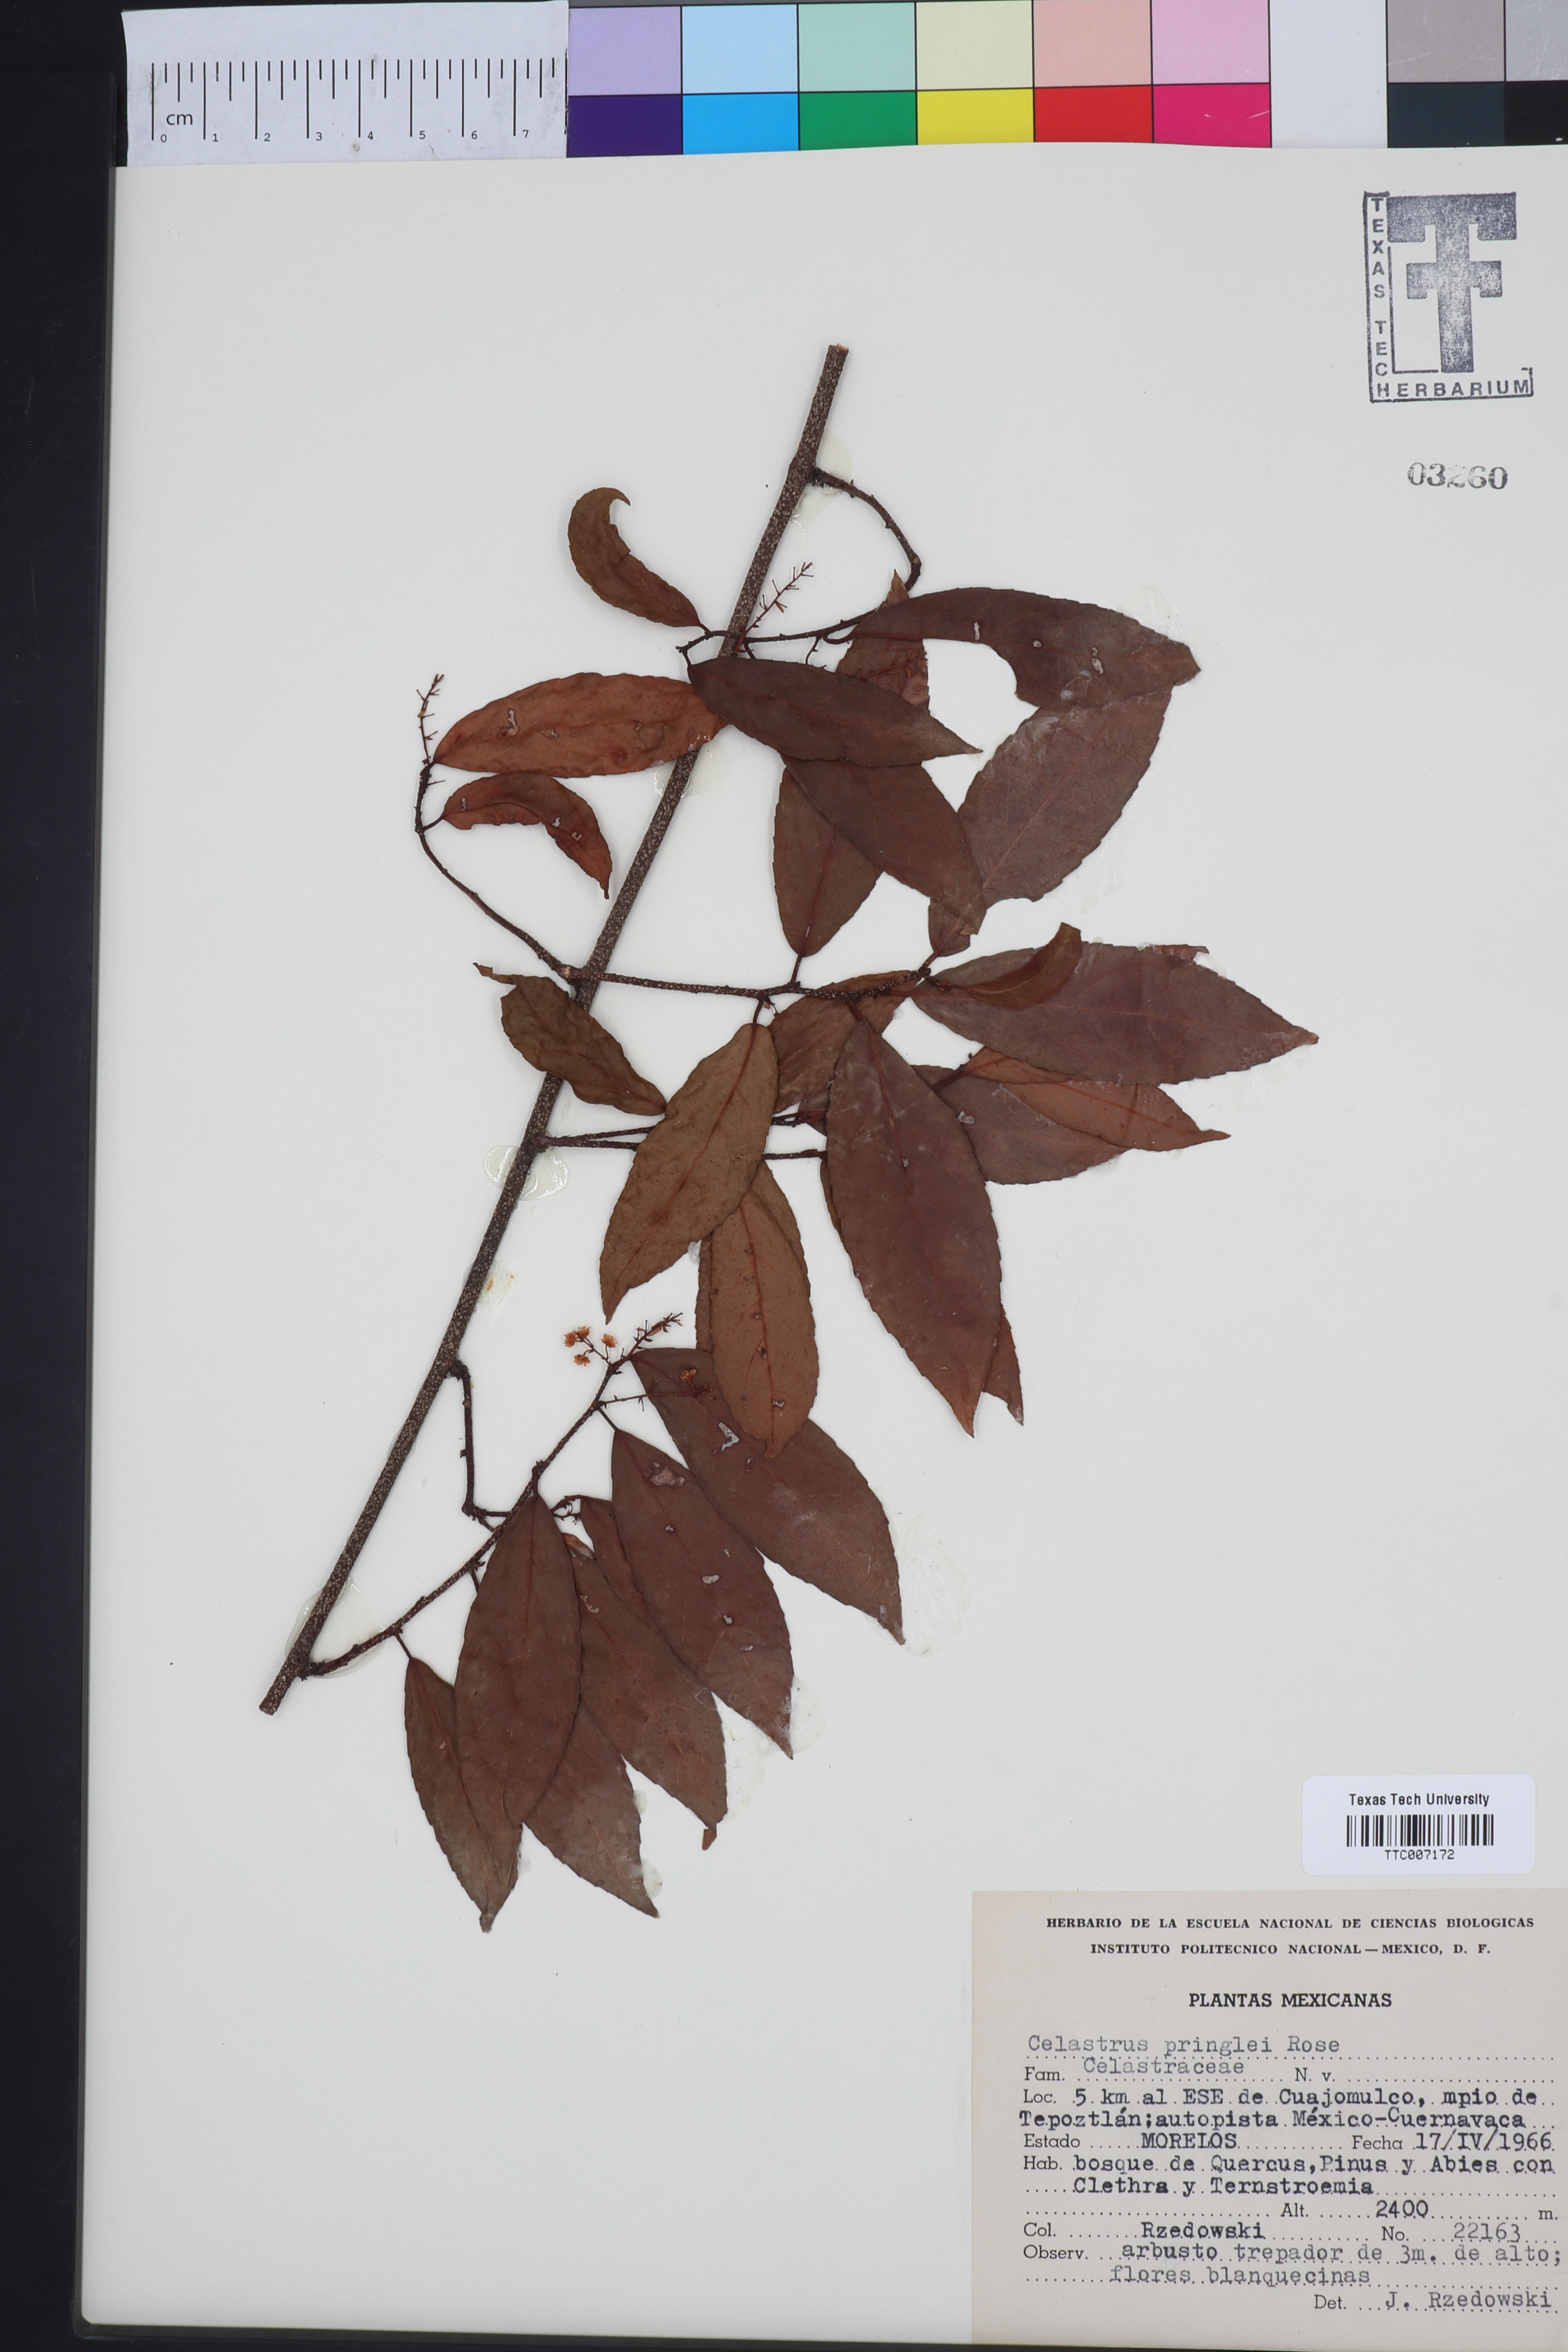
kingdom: Plantae
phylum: Tracheophyta
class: Magnoliopsida
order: Celastrales
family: Celastraceae
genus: Celastrus
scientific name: Celastrus pringlei
